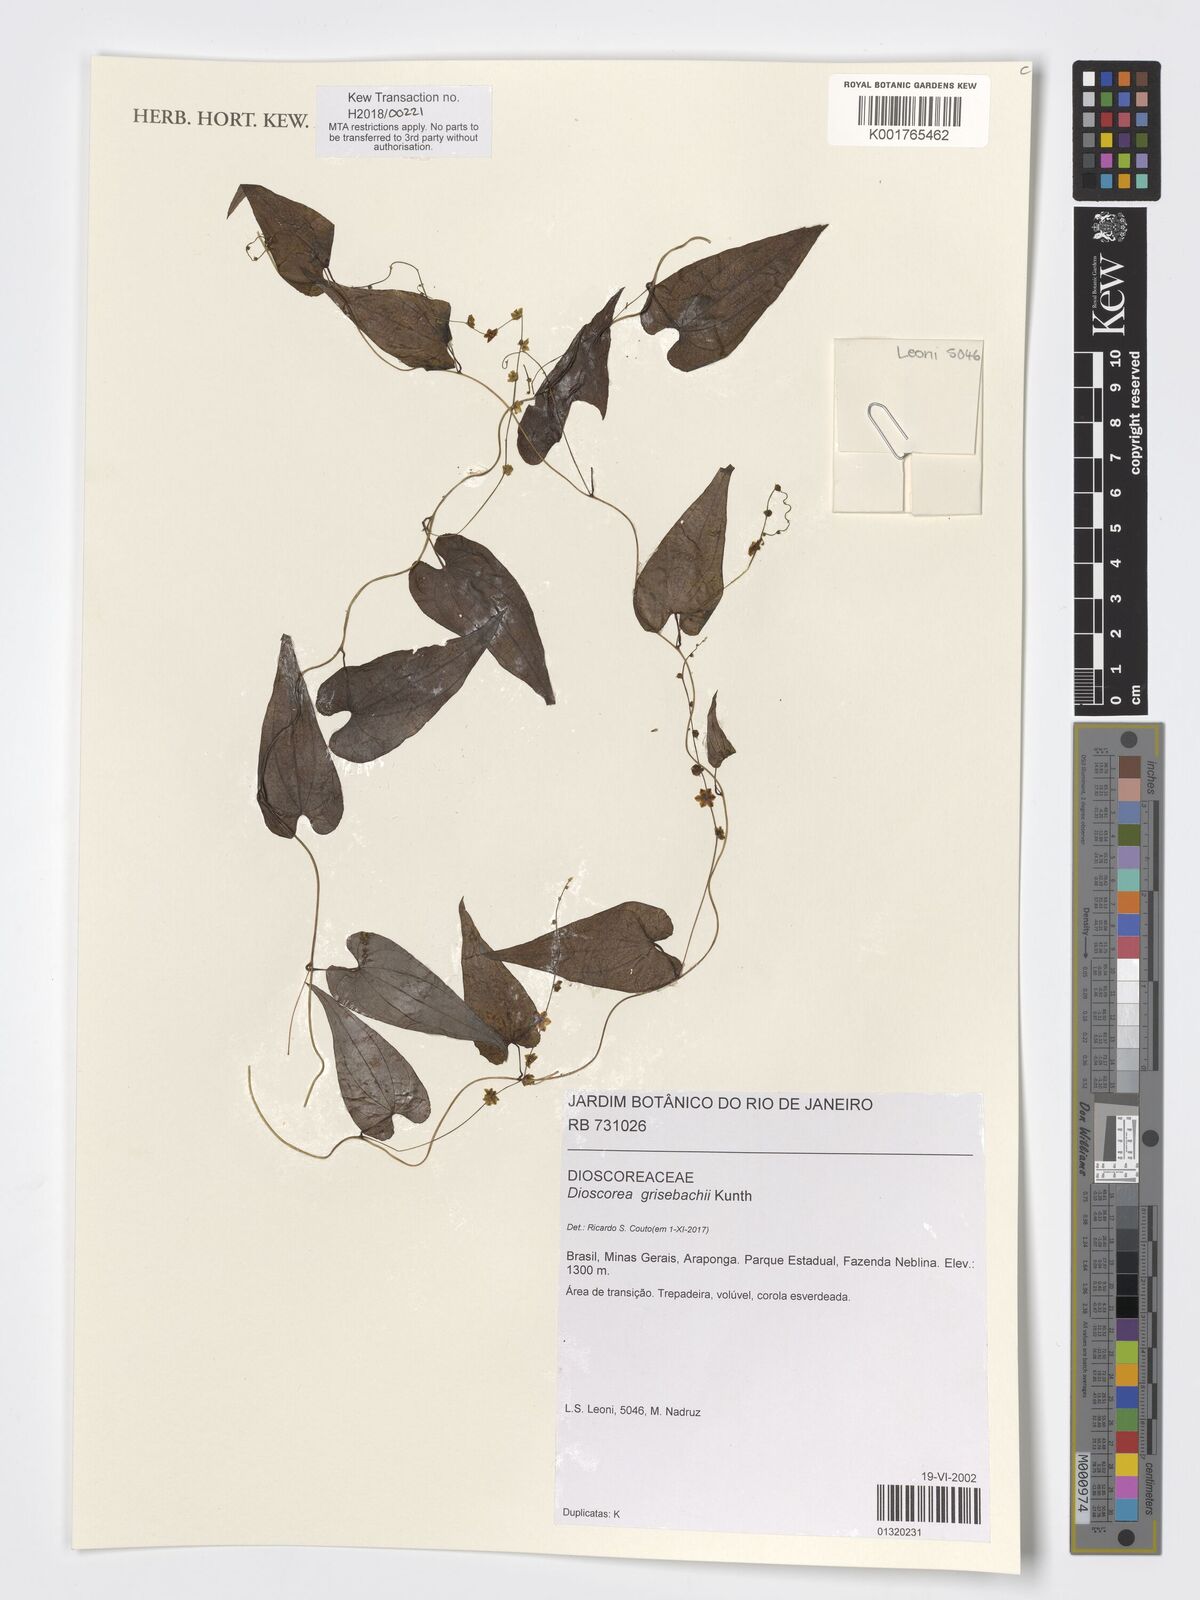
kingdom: Plantae
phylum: Tracheophyta
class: Liliopsida
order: Dioscoreales
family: Dioscoreaceae
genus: Dioscorea
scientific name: Dioscorea grisebachii
